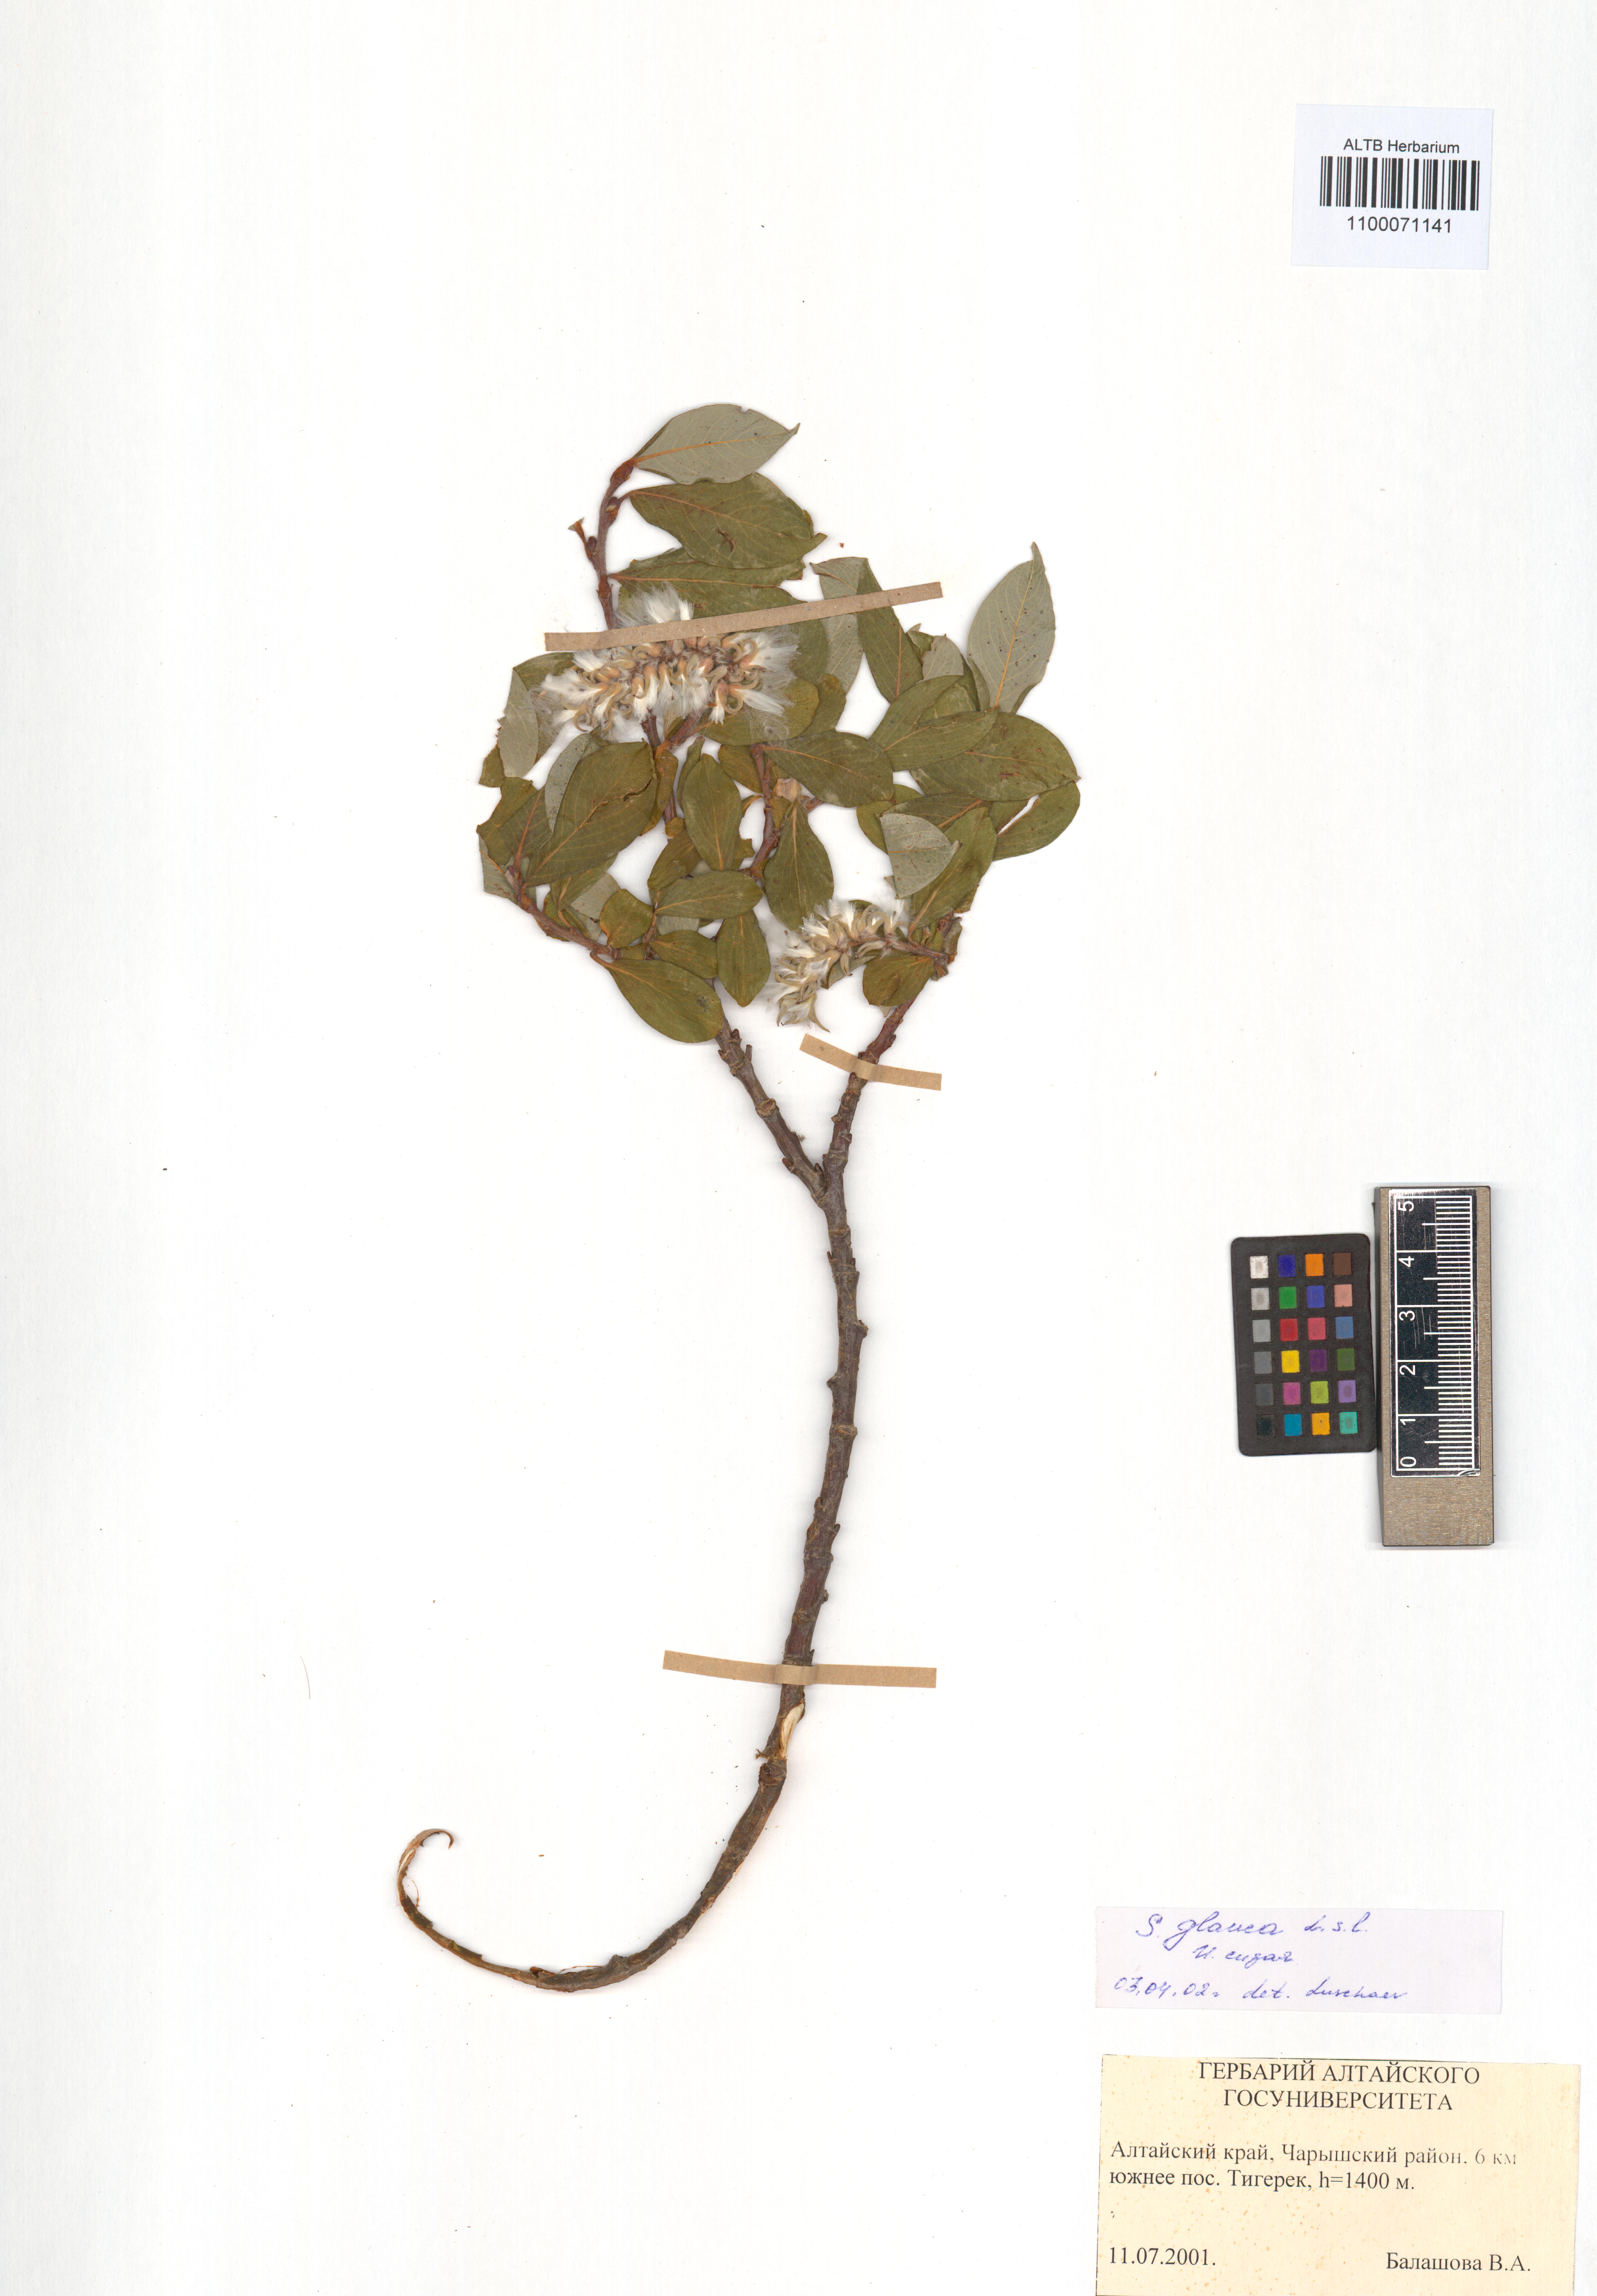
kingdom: Plantae
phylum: Tracheophyta
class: Magnoliopsida
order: Malpighiales
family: Salicaceae
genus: Salix
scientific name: Salix glauca
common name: Glaucous willow
